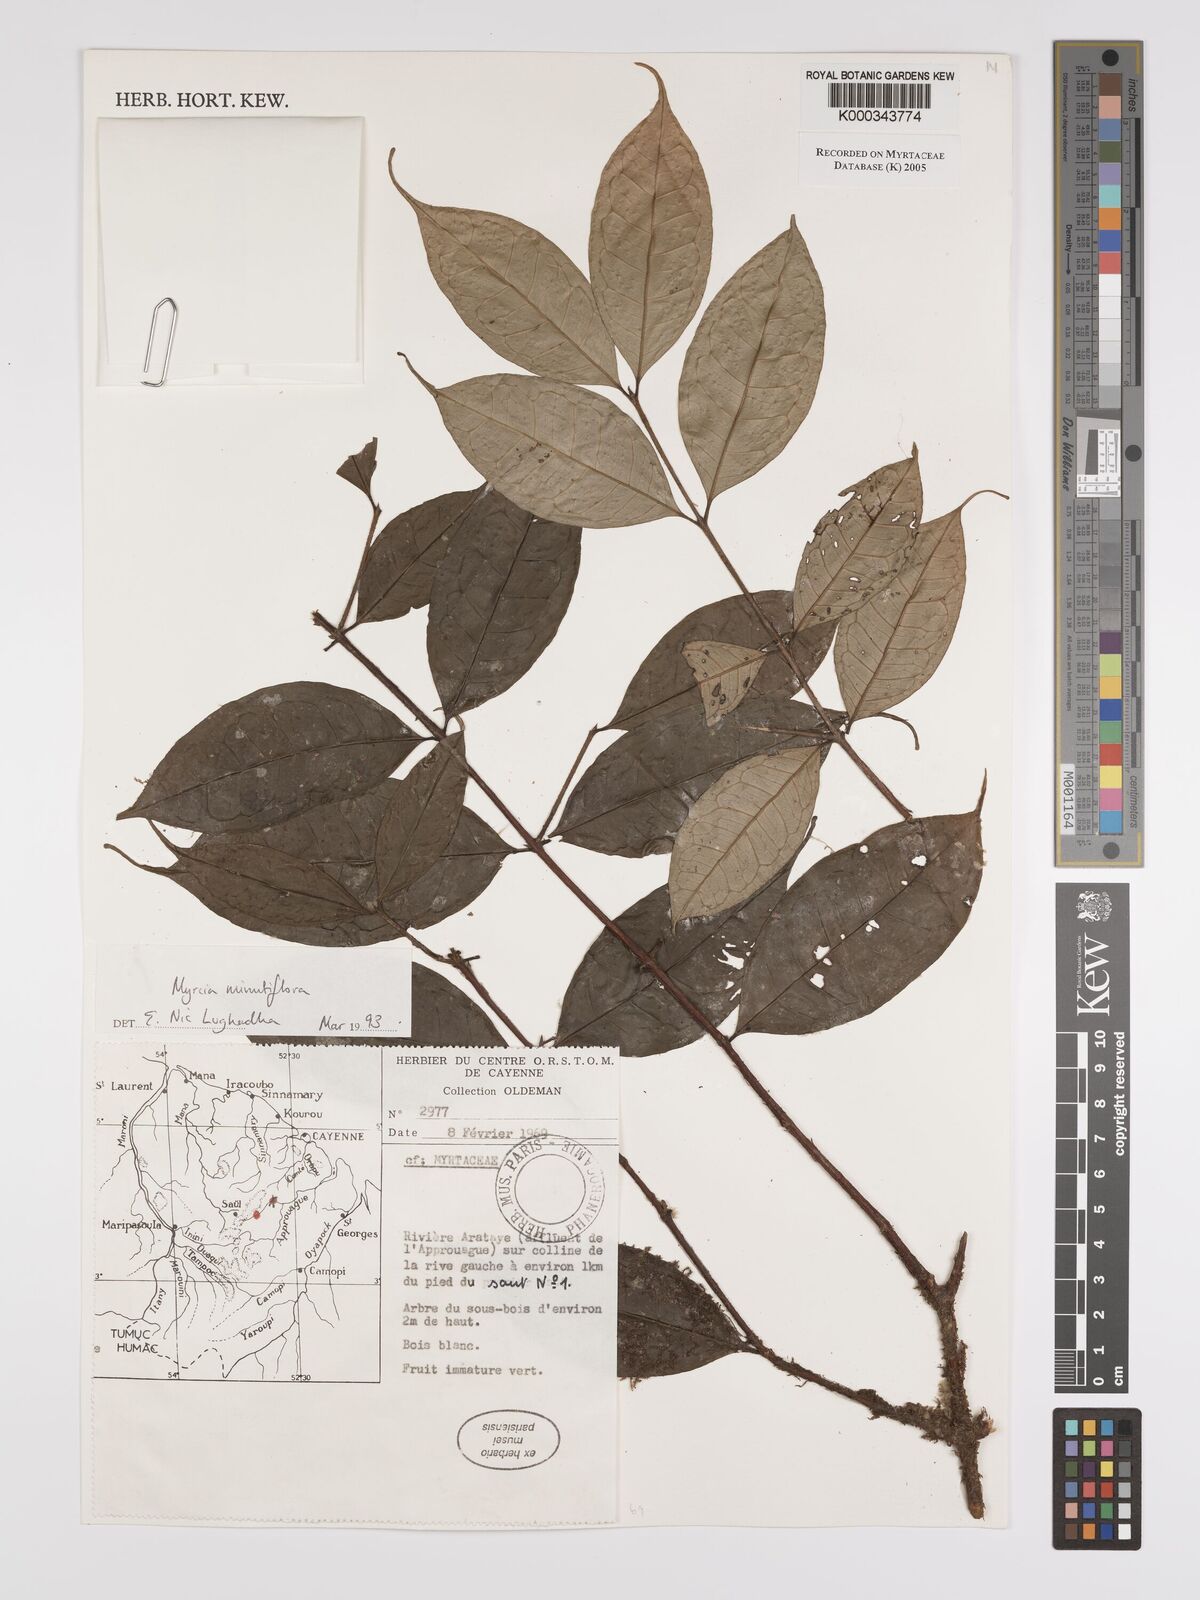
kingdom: Plantae
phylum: Tracheophyta
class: Magnoliopsida
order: Myrtales
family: Myrtaceae
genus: Myrcia
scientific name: Myrcia minutiflora
